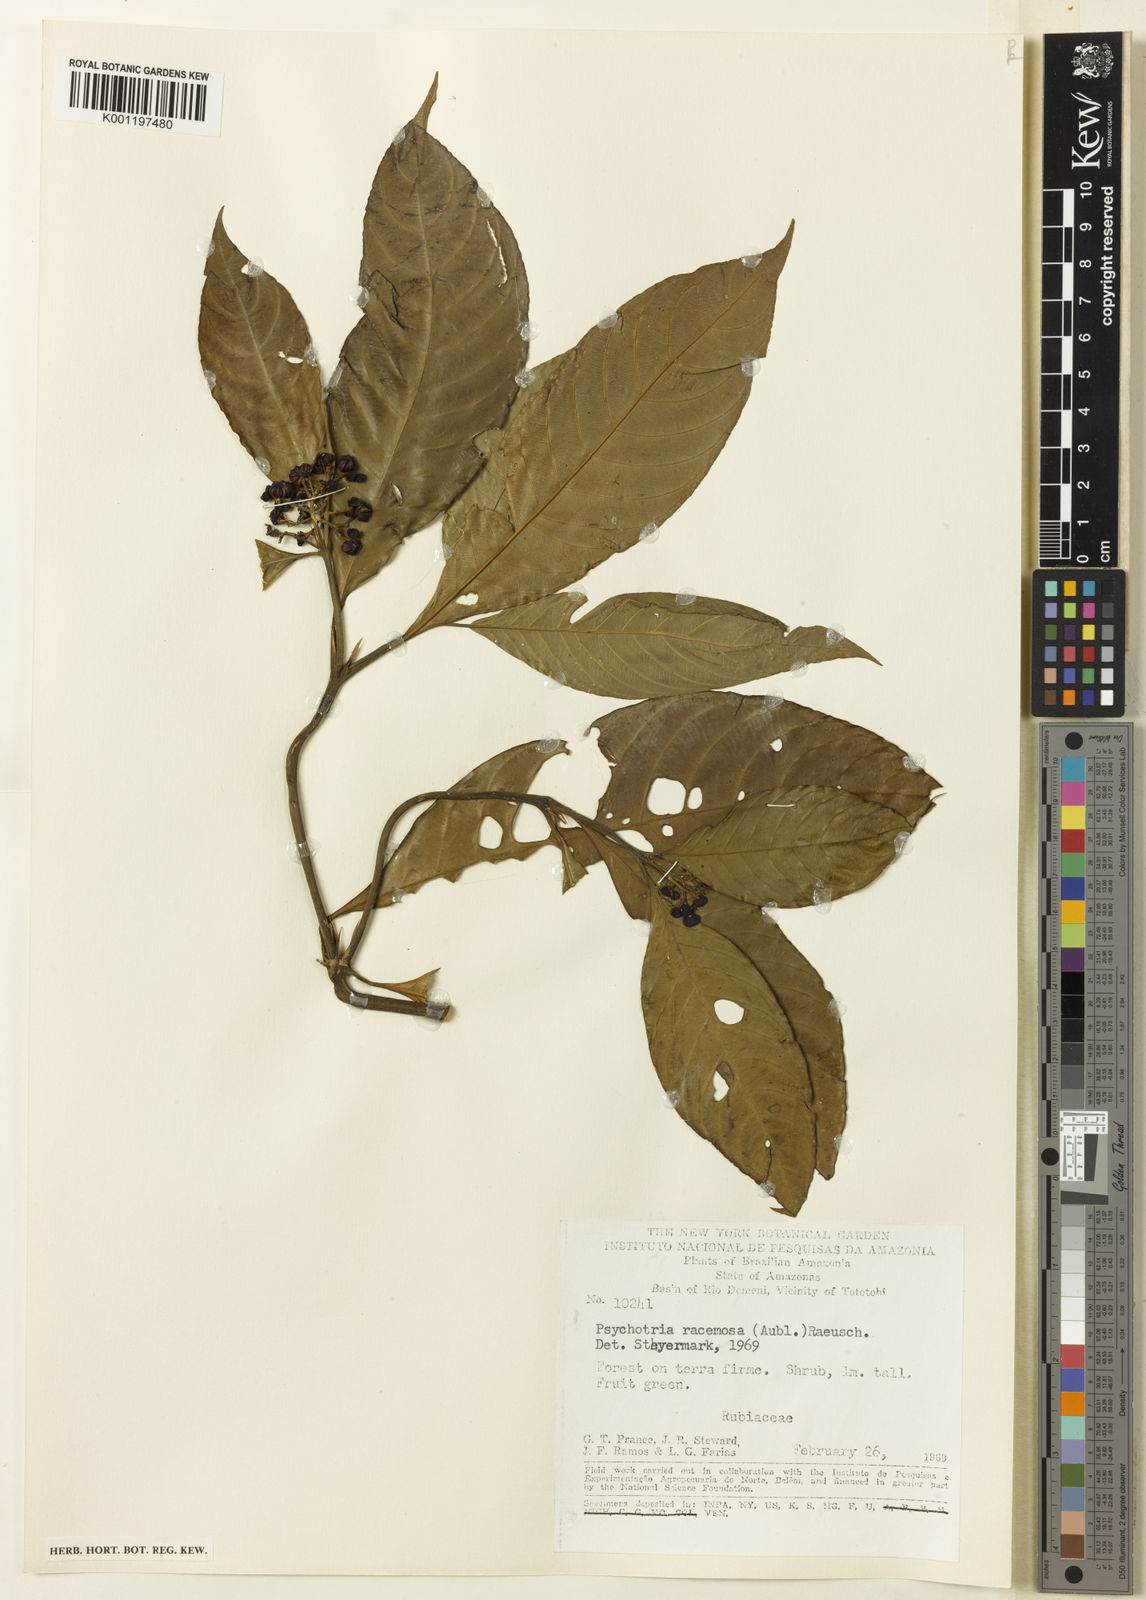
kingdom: Plantae
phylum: Tracheophyta
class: Magnoliopsida
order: Gentianales
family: Rubiaceae
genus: Palicourea
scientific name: Palicourea racemosa
